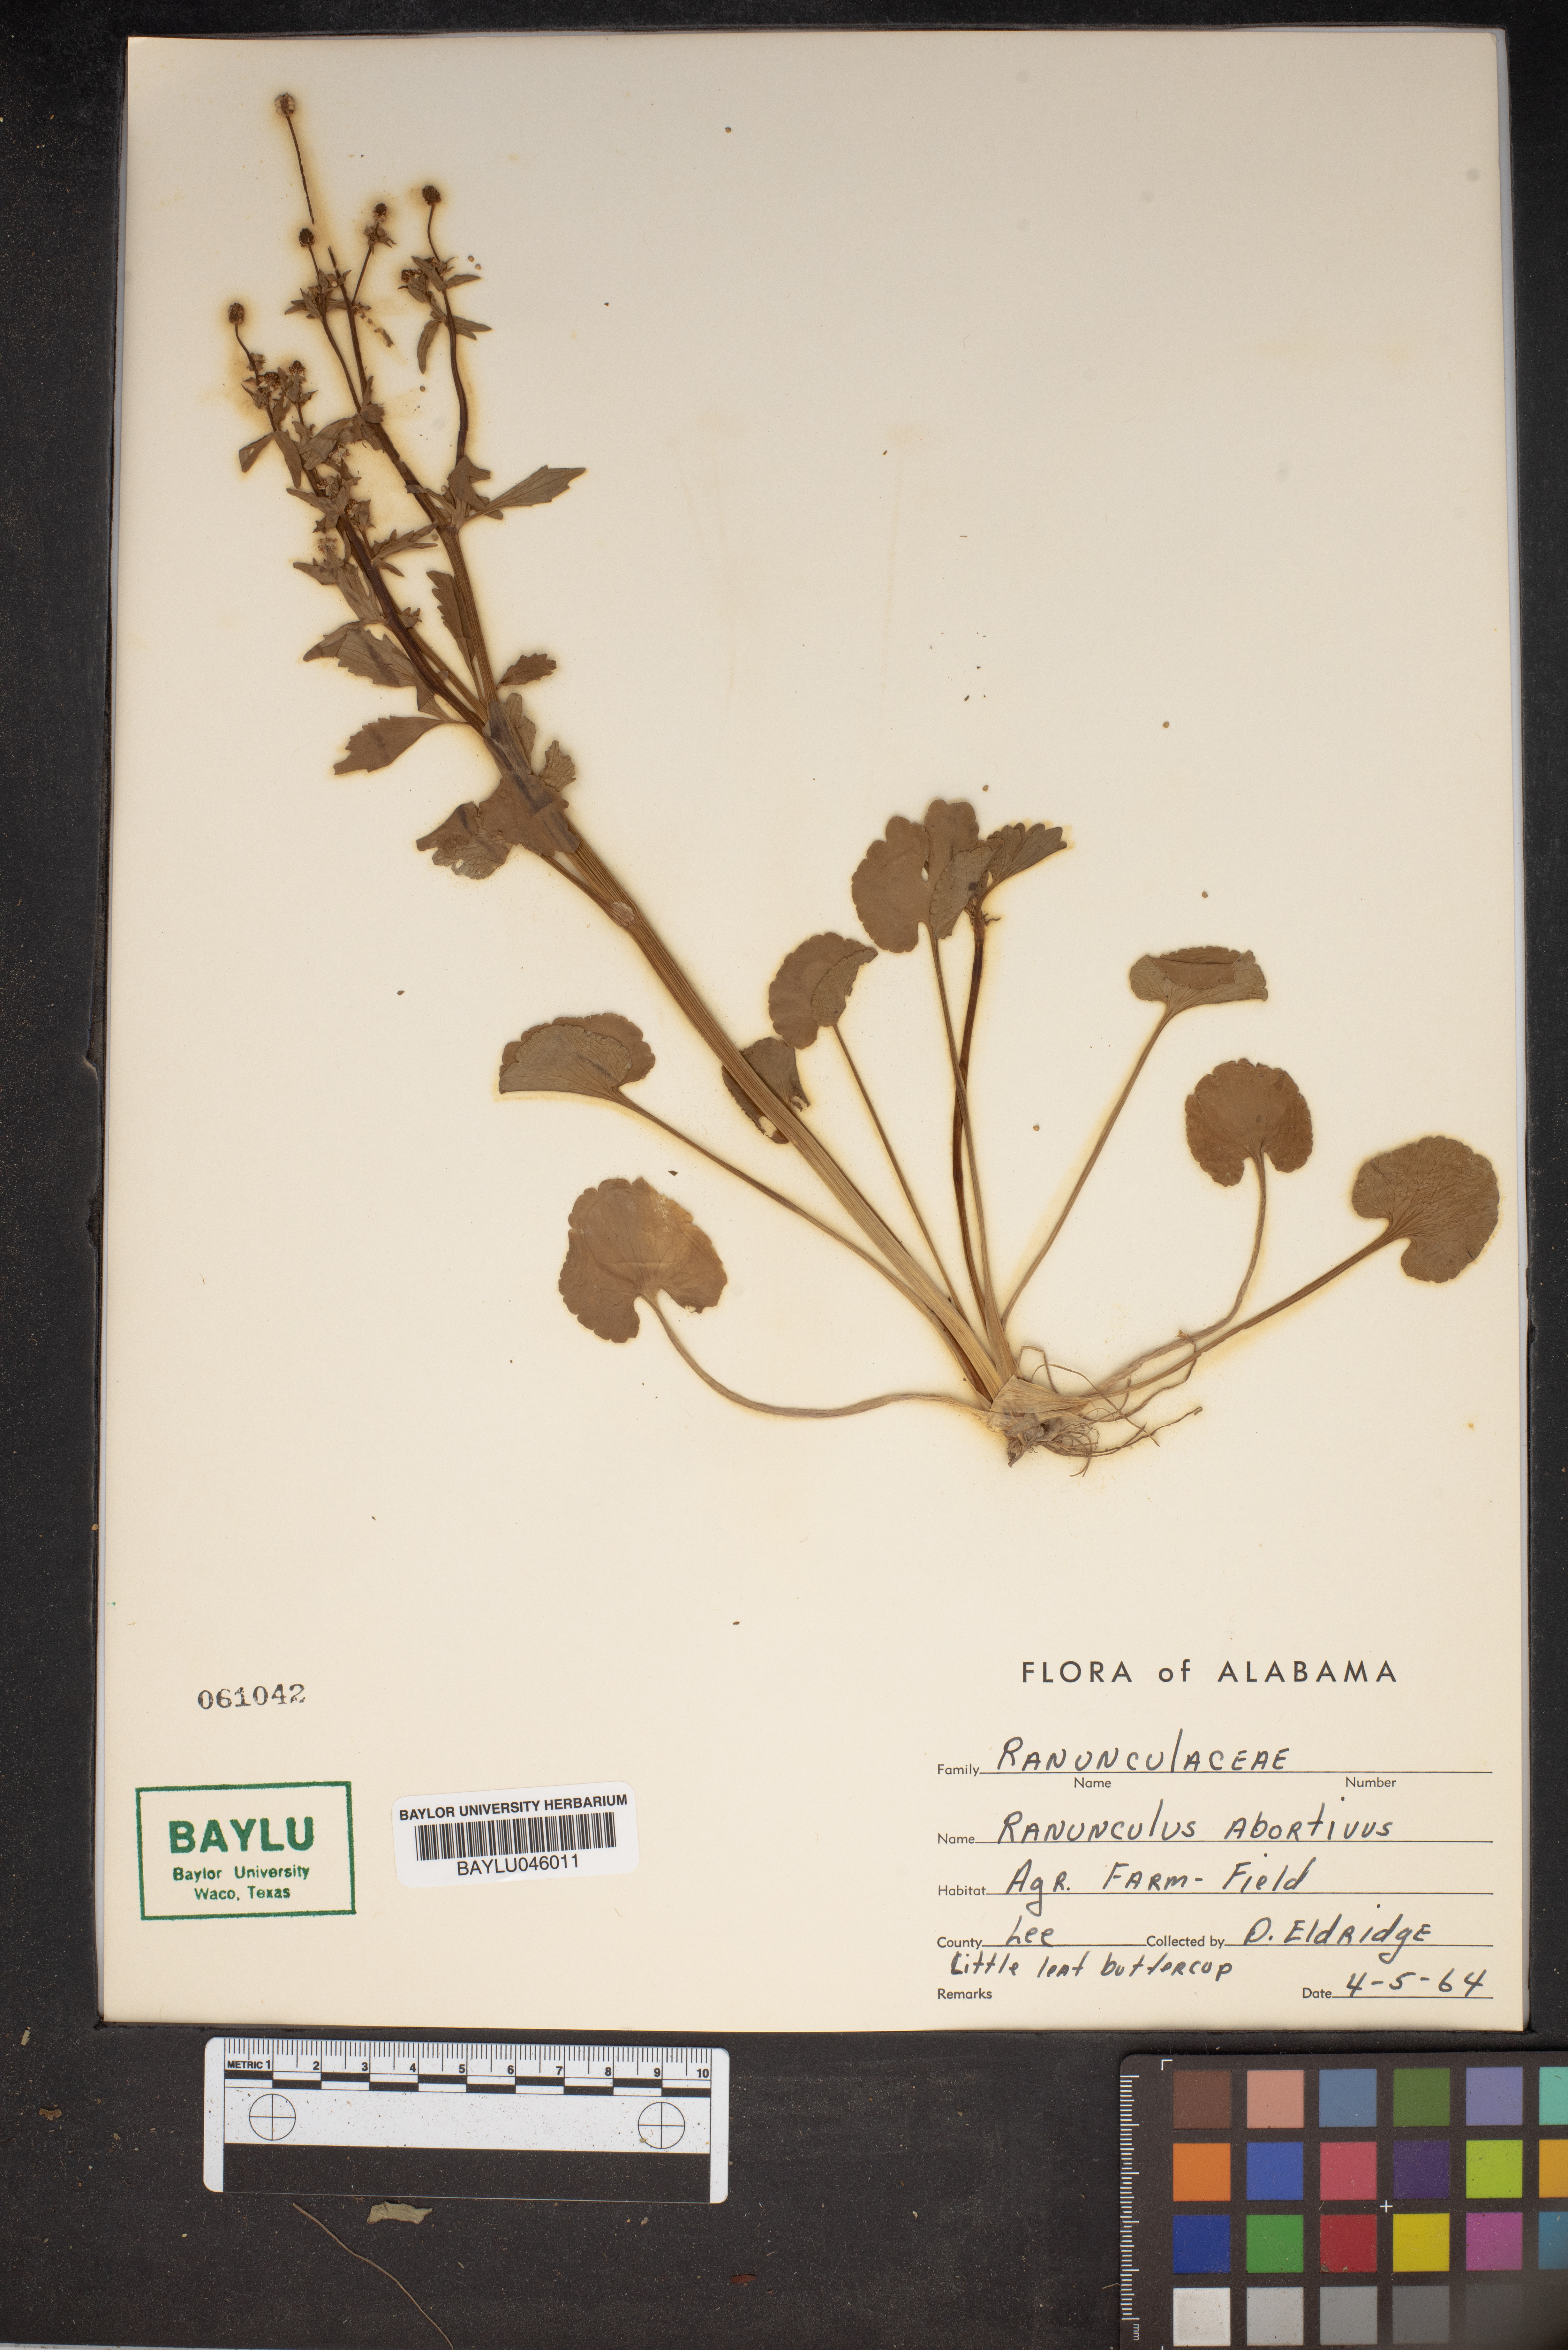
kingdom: Plantae
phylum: Tracheophyta
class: Magnoliopsida
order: Ranunculales
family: Ranunculaceae
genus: Ranunculus
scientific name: Ranunculus abortivus
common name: Early wood buttercup
